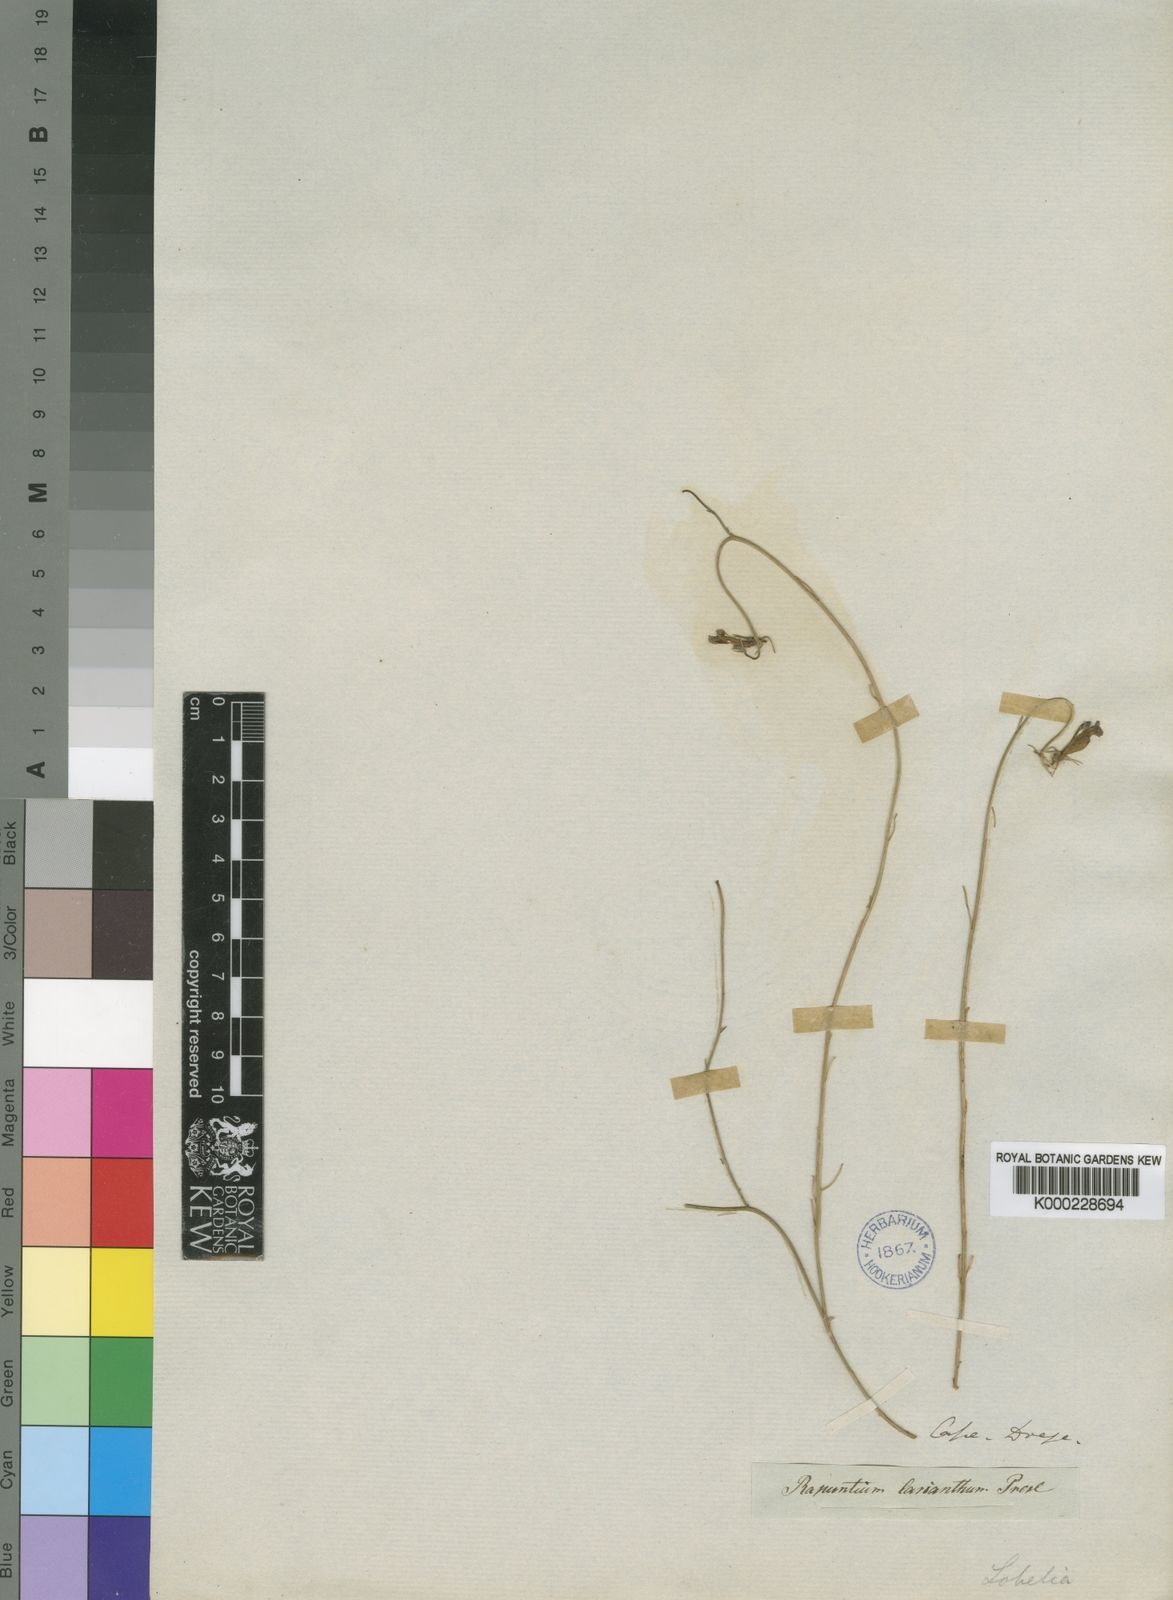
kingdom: Plantae
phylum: Tracheophyta
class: Magnoliopsida
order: Asterales
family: Campanulaceae
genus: Lobelia
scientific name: Lobelia linearis
